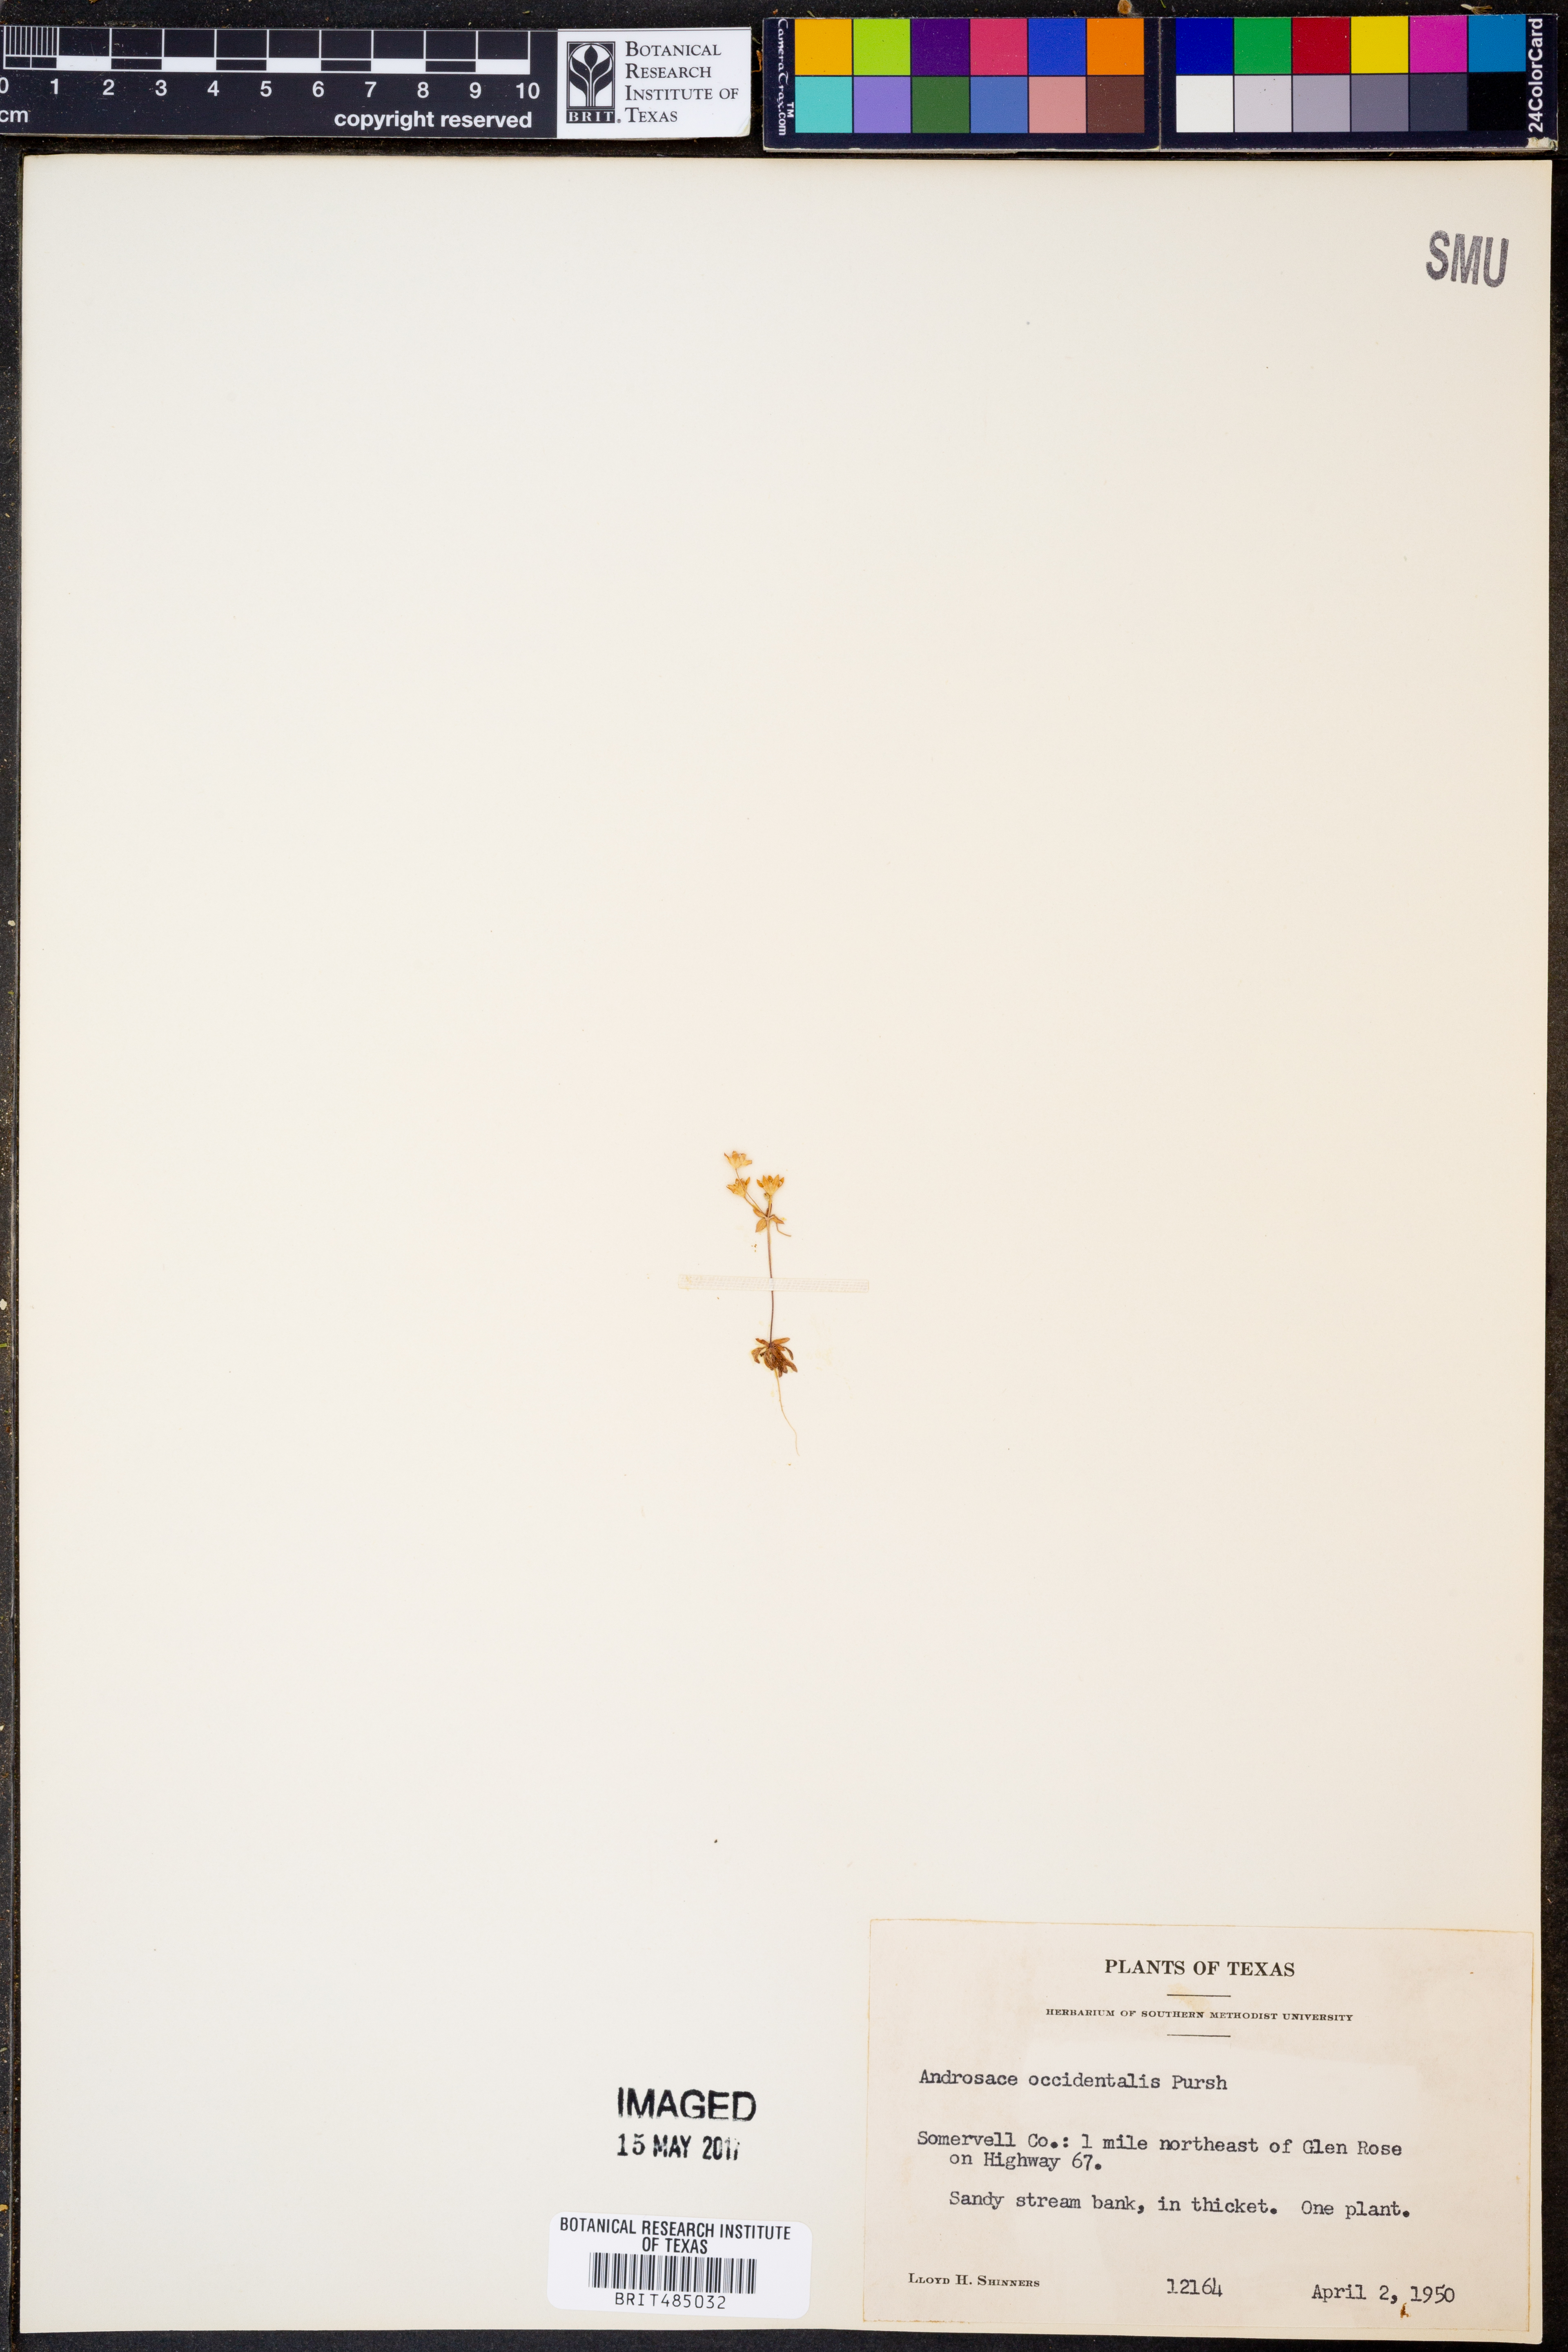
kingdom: Plantae
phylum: Tracheophyta
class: Magnoliopsida
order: Ericales
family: Primulaceae
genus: Androsace
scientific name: Androsace occidentalis
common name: West rock-jasmine
